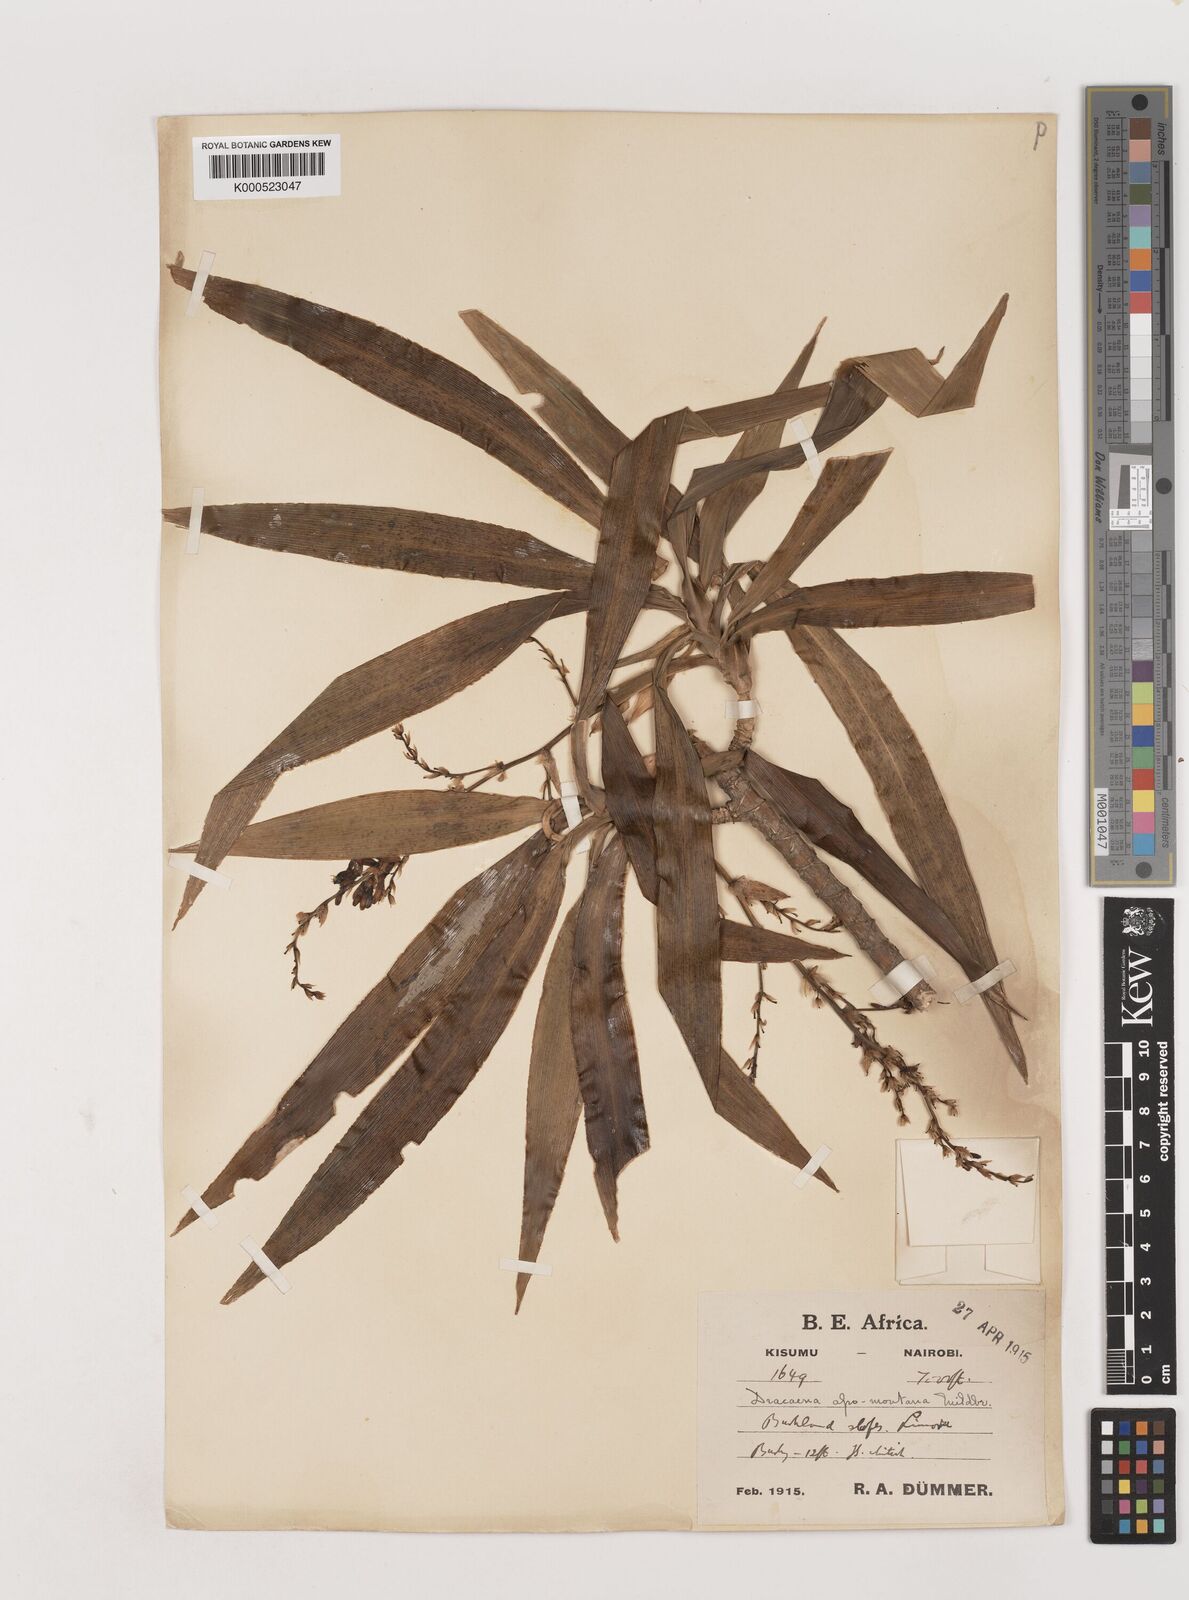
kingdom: Plantae
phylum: Tracheophyta
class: Liliopsida
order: Asparagales
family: Asparagaceae
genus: Dracaena
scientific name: Dracaena afromontana
